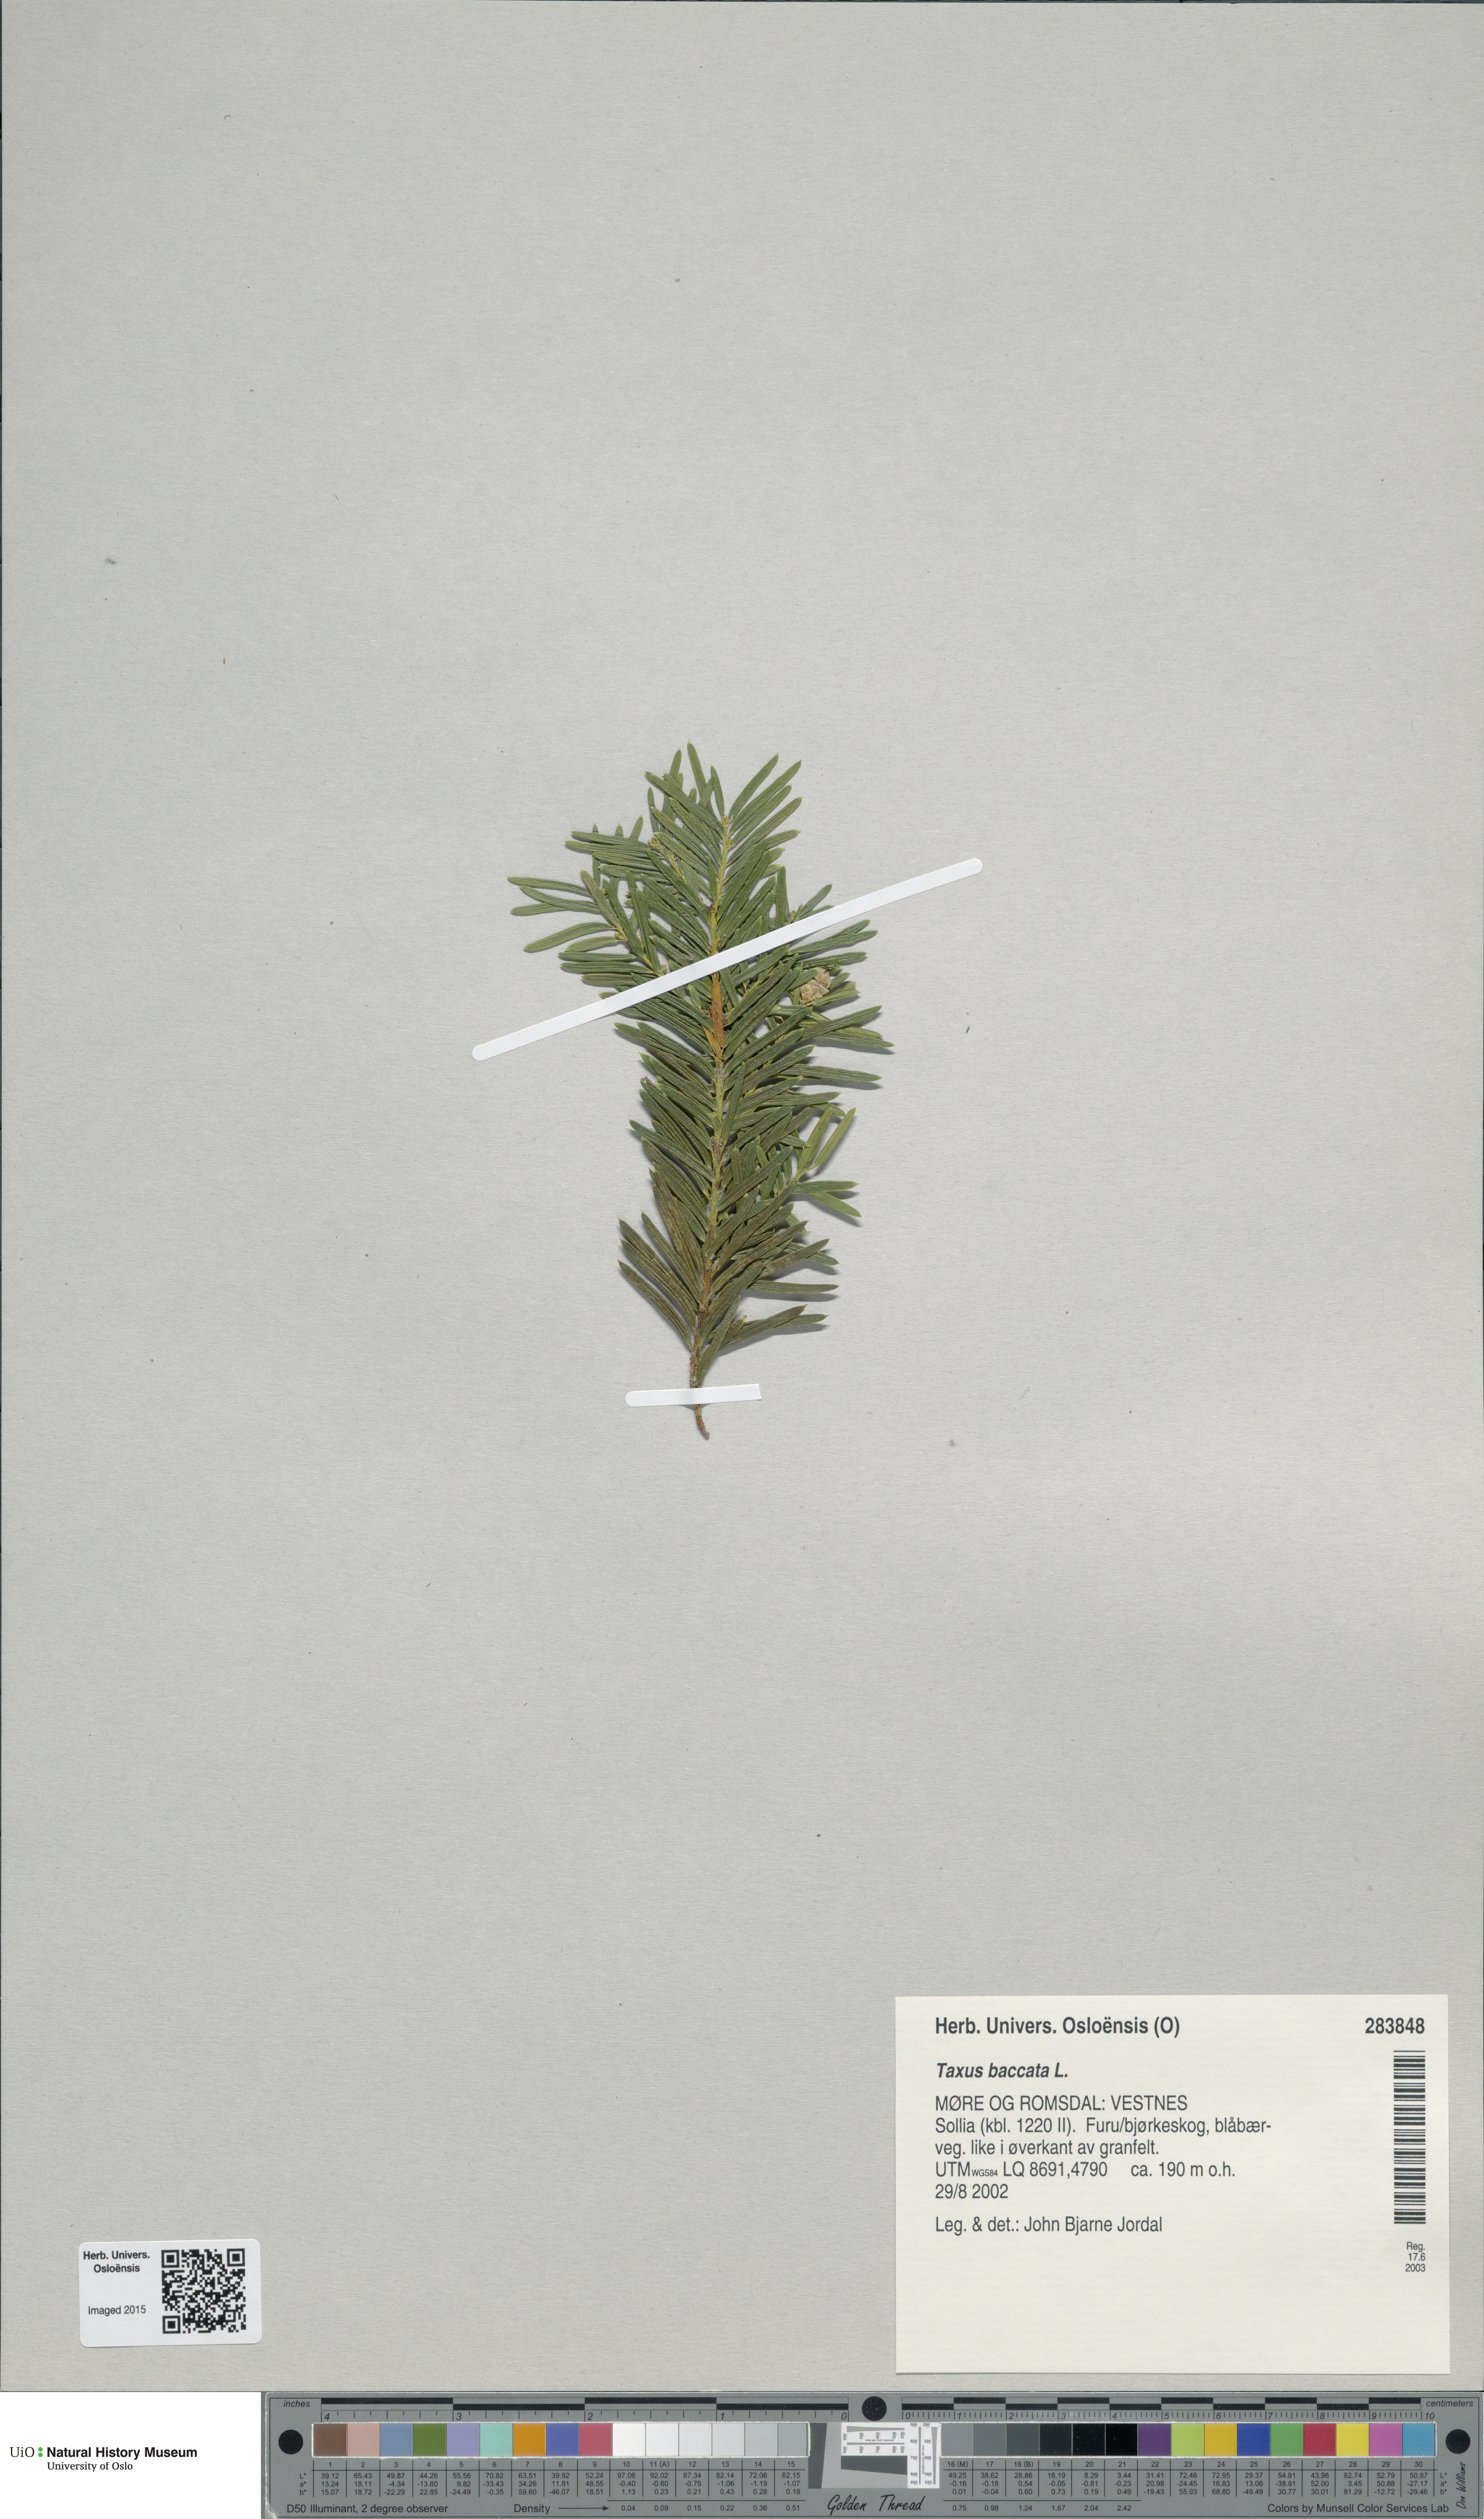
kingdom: Plantae
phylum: Tracheophyta
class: Pinopsida
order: Pinales
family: Taxaceae
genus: Taxus
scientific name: Taxus baccata
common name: Yew
